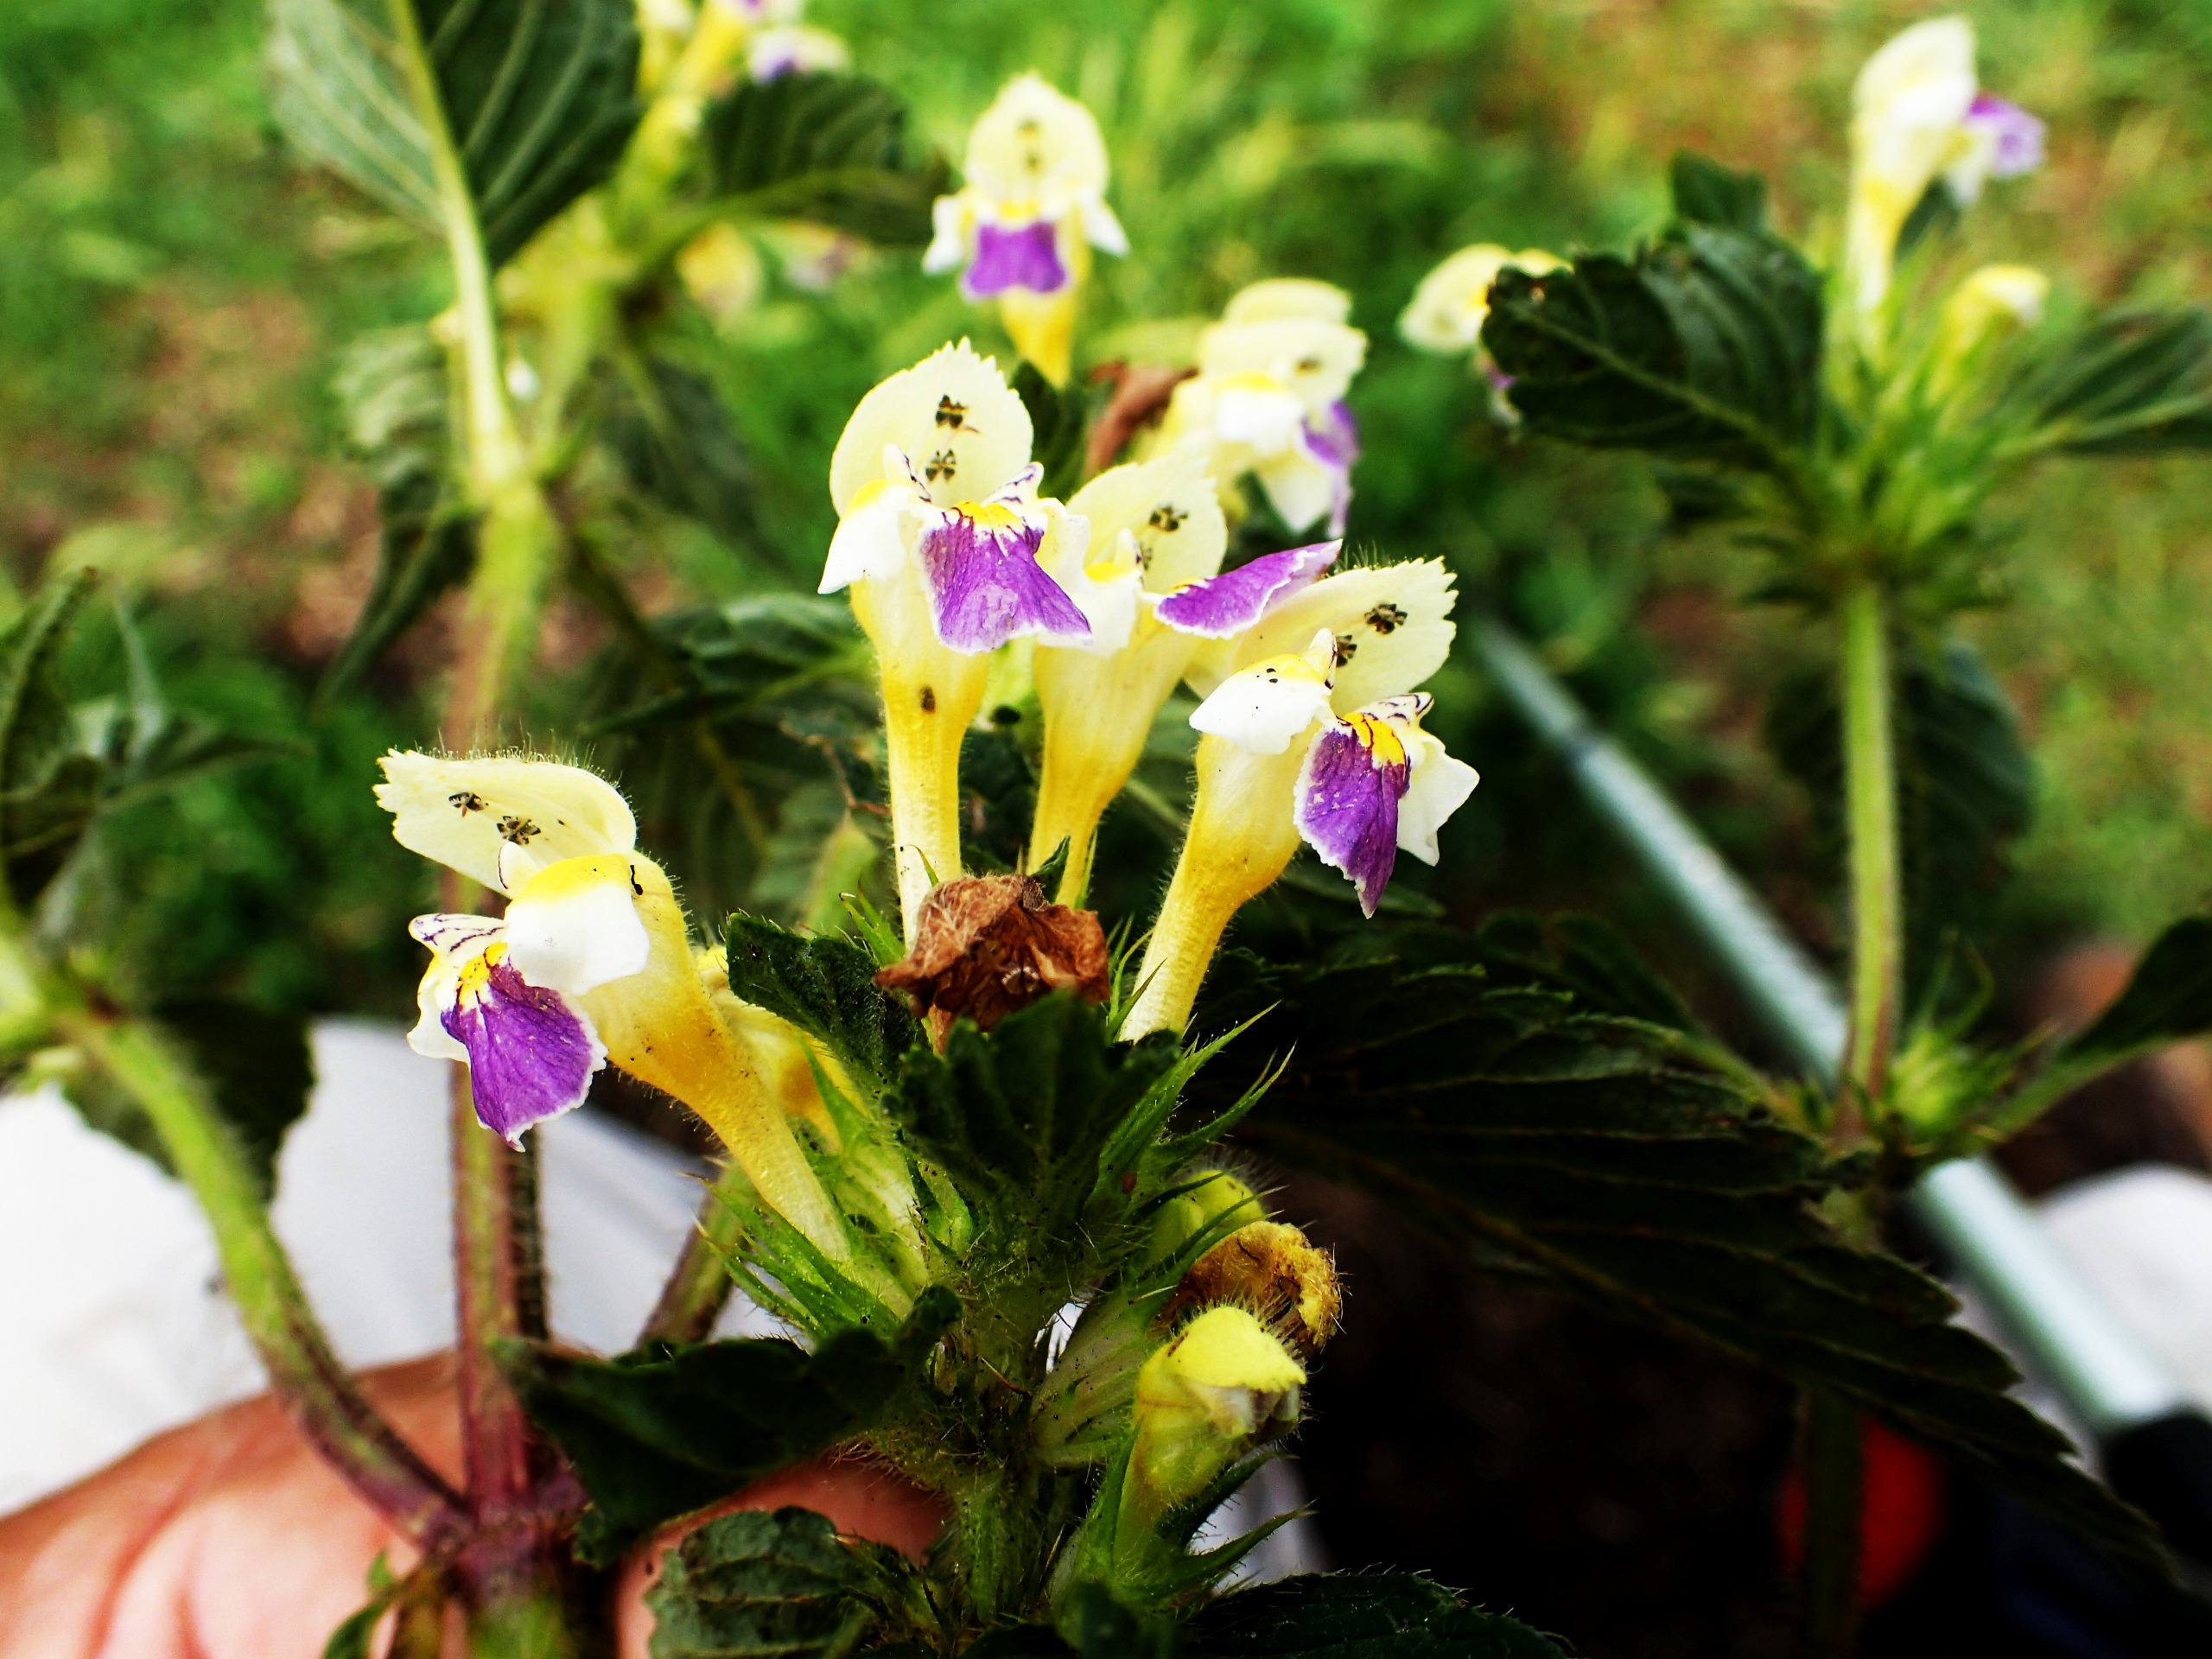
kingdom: Plantae
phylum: Tracheophyta
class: Magnoliopsida
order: Lamiales
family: Lamiaceae
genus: Galeopsis
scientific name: Galeopsis speciosa
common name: Hamp-hanekro
